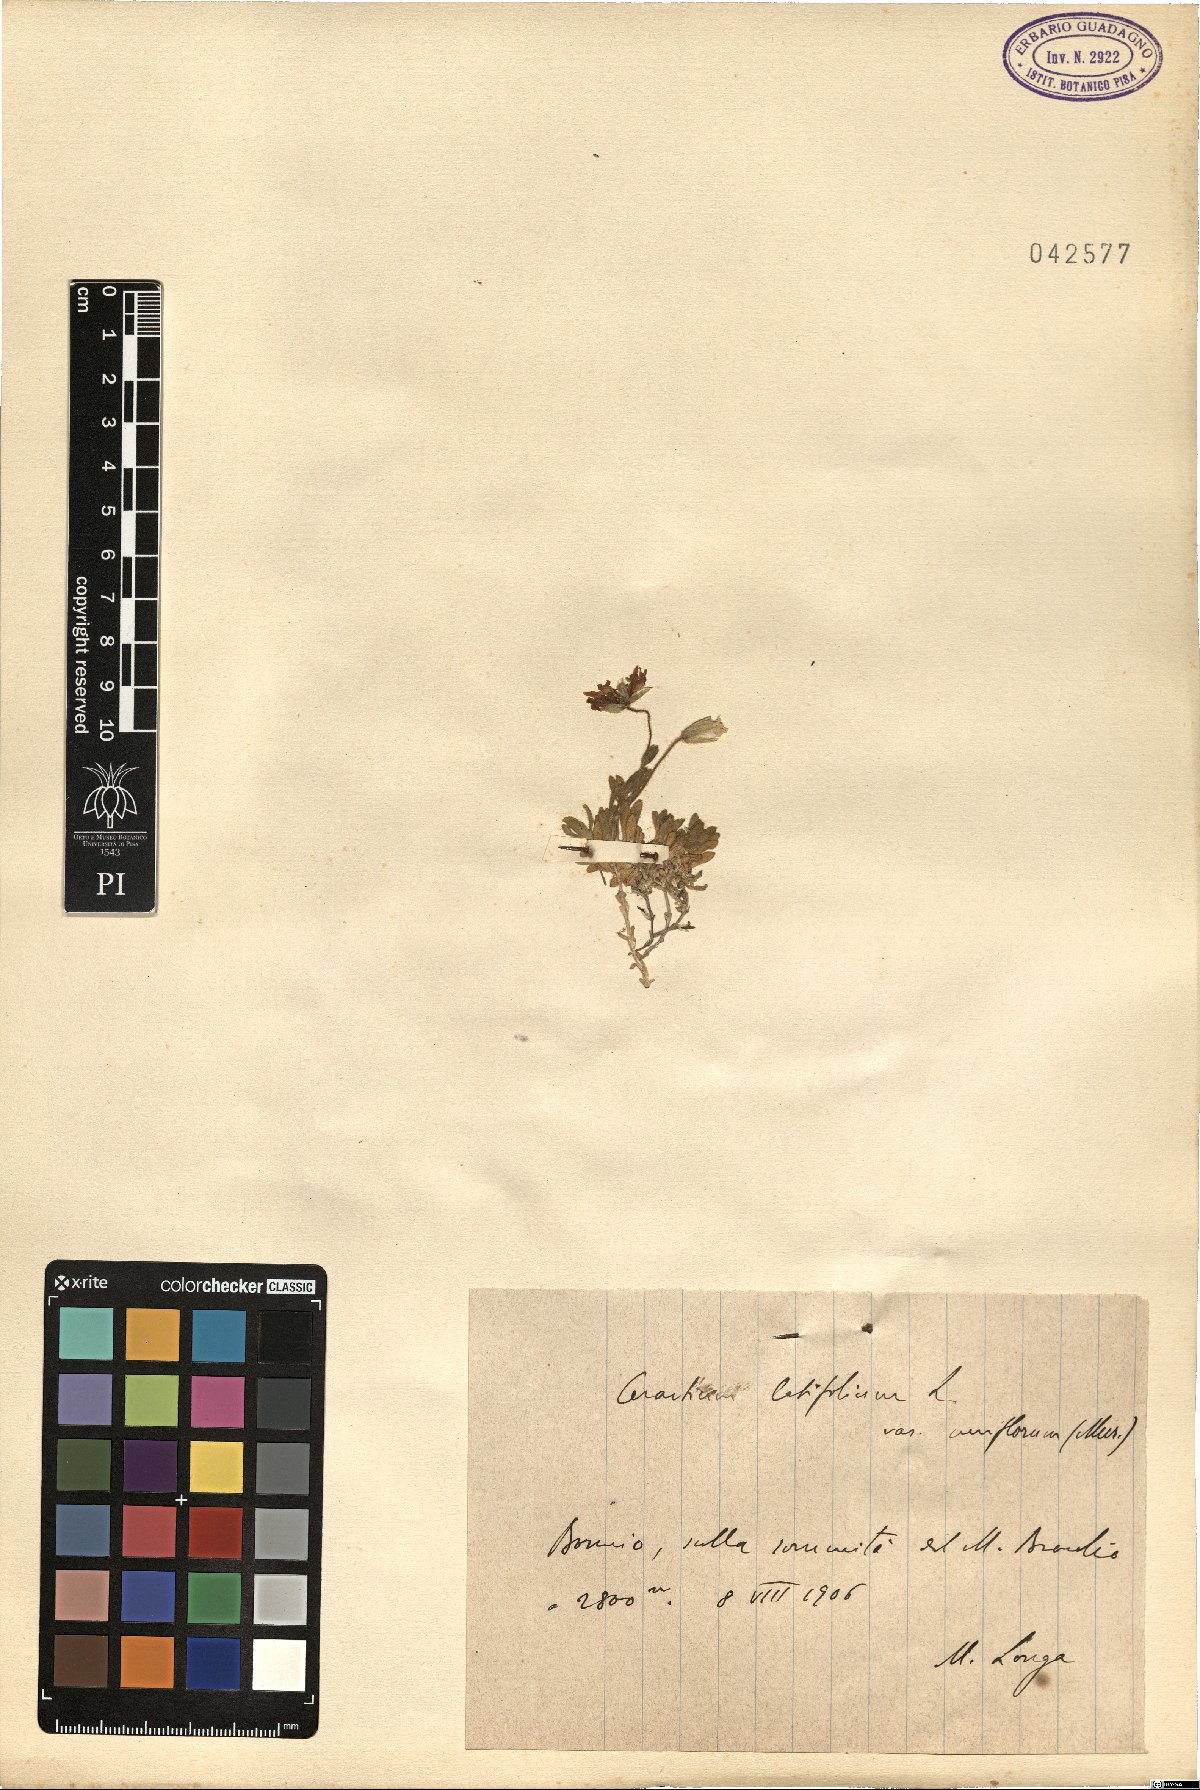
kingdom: Plantae
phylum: Tracheophyta
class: Magnoliopsida
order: Caryophyllales
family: Caryophyllaceae
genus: Cerastium
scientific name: Cerastium uniflorum
